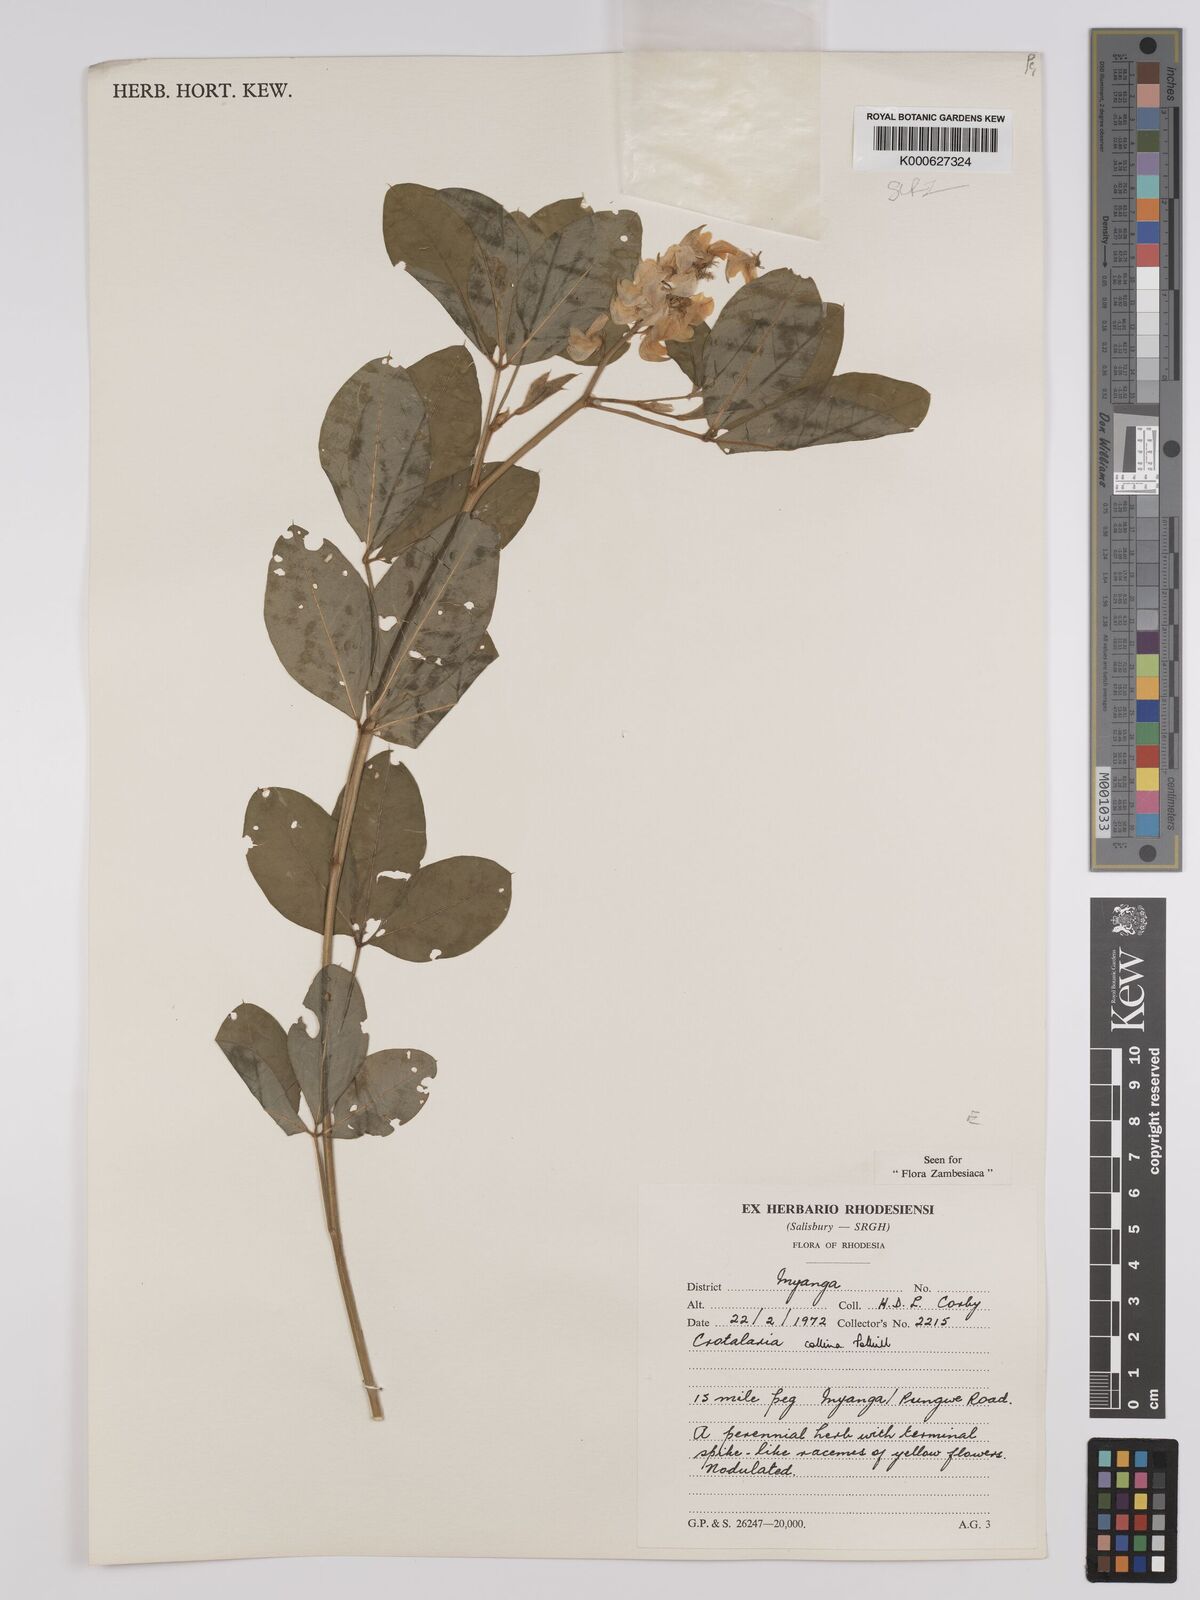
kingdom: Plantae
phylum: Tracheophyta
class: Magnoliopsida
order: Fabales
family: Fabaceae
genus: Crotalaria
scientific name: Crotalaria collina
